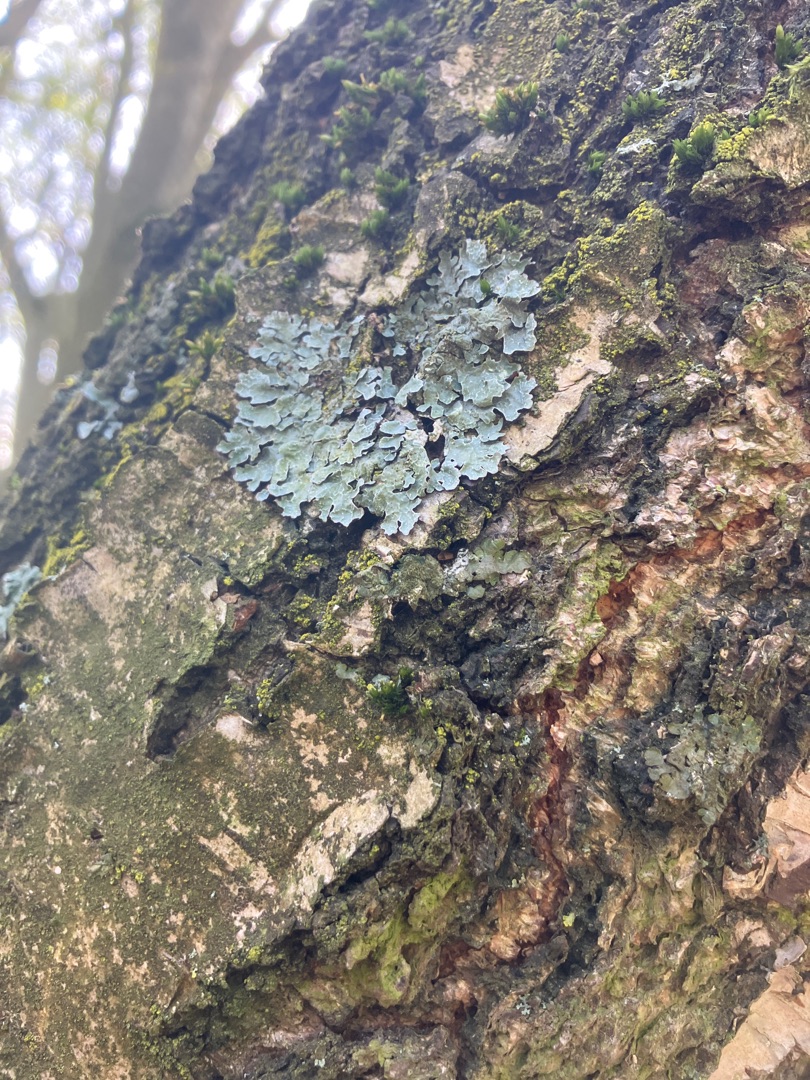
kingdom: Fungi
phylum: Ascomycota
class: Lecanoromycetes
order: Lecanorales
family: Parmeliaceae
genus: Parmelia
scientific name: Parmelia sulcata
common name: Rynket skållav
